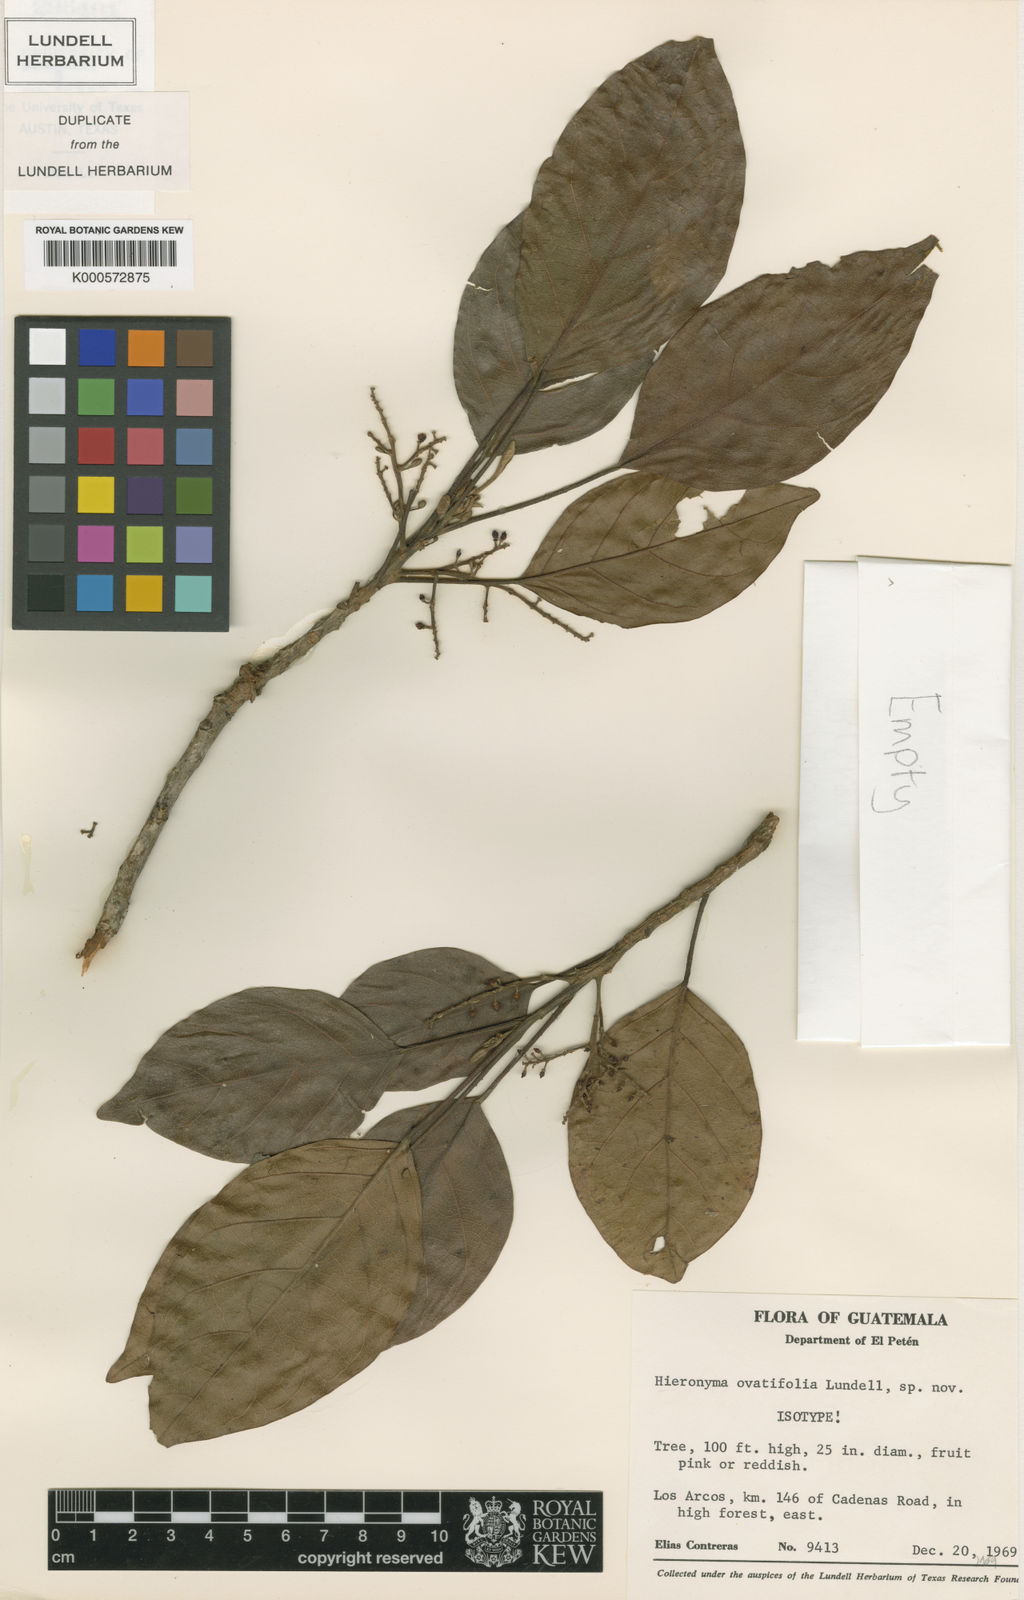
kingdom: Plantae
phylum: Tracheophyta
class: Magnoliopsida
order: Malpighiales
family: Phyllanthaceae
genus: Hieronyma
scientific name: Hieronyma alchorneoides
